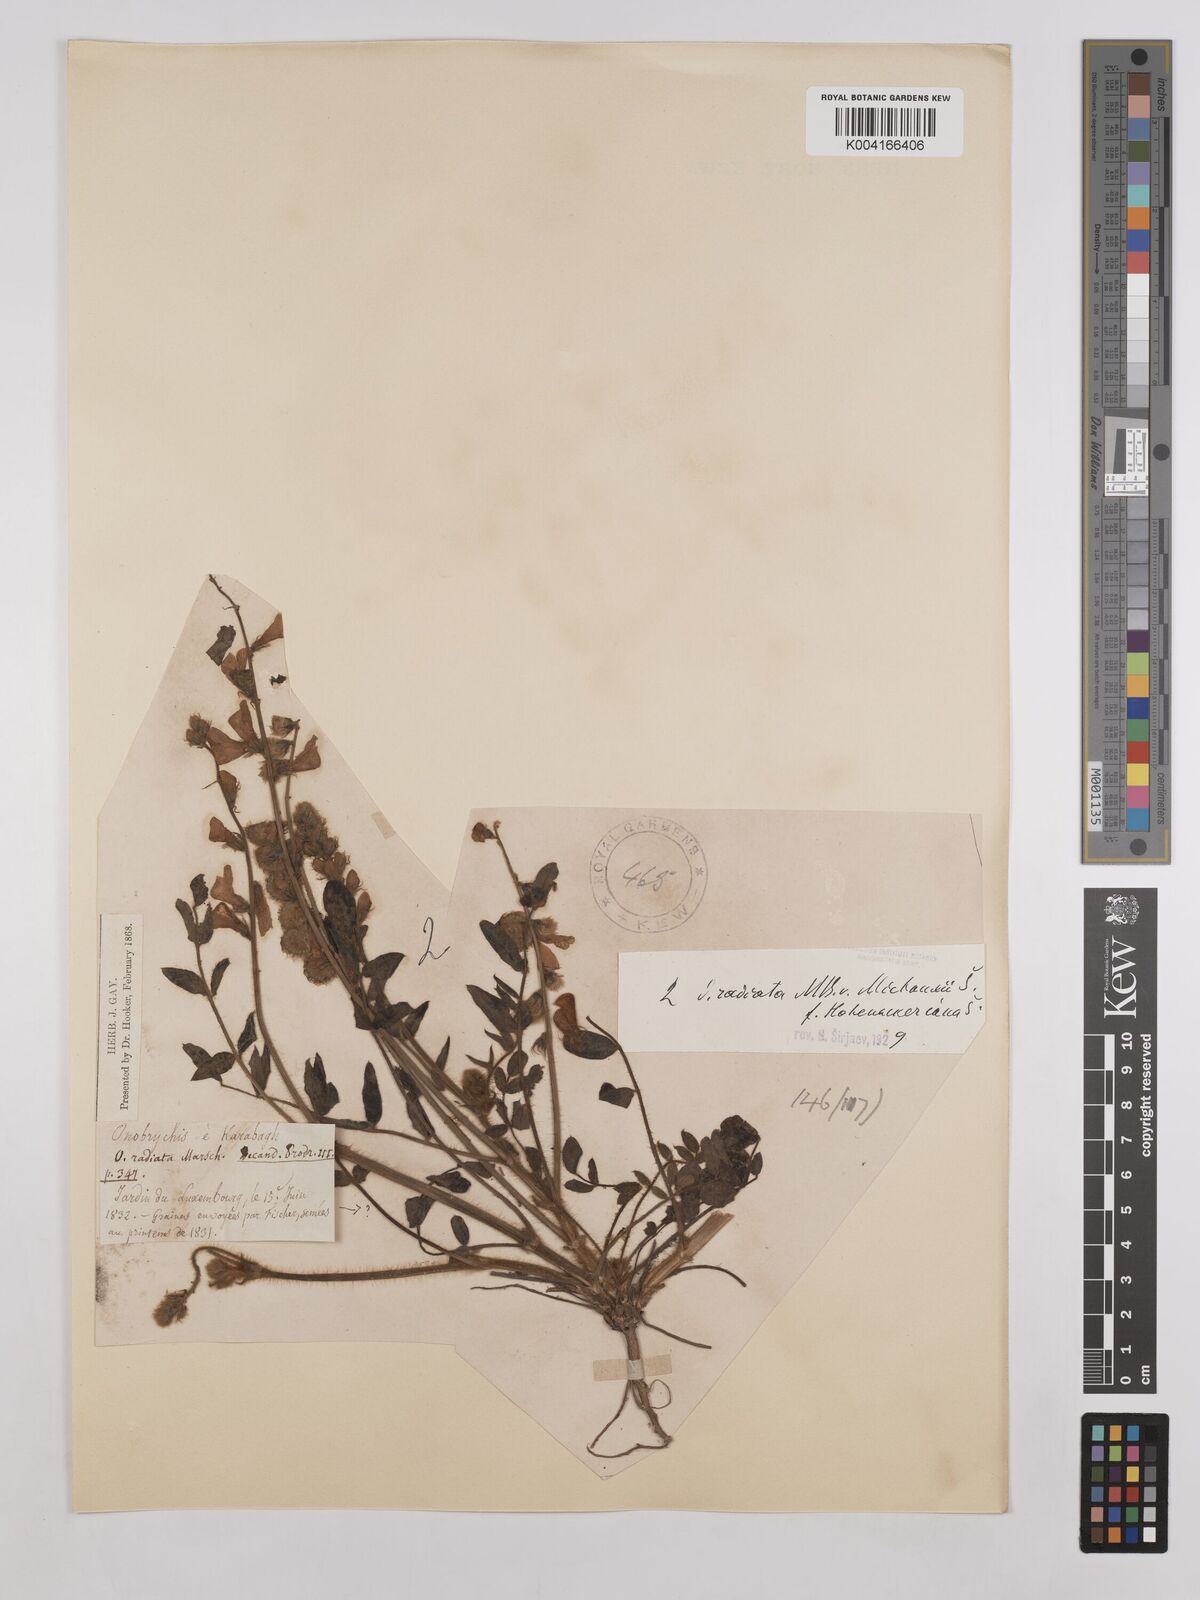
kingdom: Plantae
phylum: Tracheophyta
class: Magnoliopsida
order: Fabales
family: Fabaceae
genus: Onobrychis
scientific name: Onobrychis
